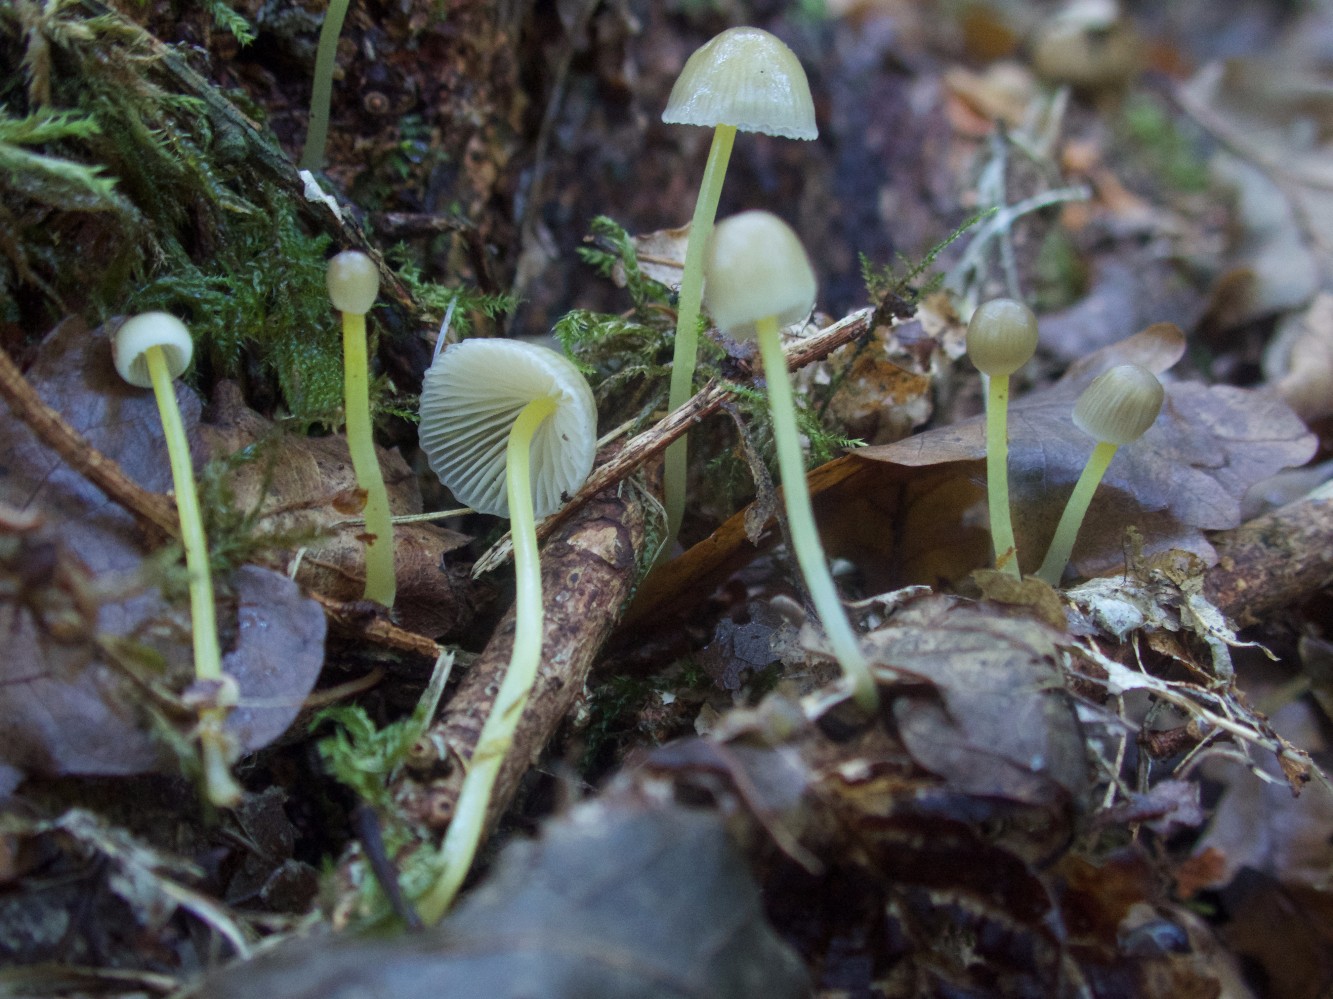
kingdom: Fungi
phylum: Basidiomycota
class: Agaricomycetes
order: Agaricales
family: Mycenaceae
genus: Mycena
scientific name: Mycena epipterygia
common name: gulstokket huesvamp
